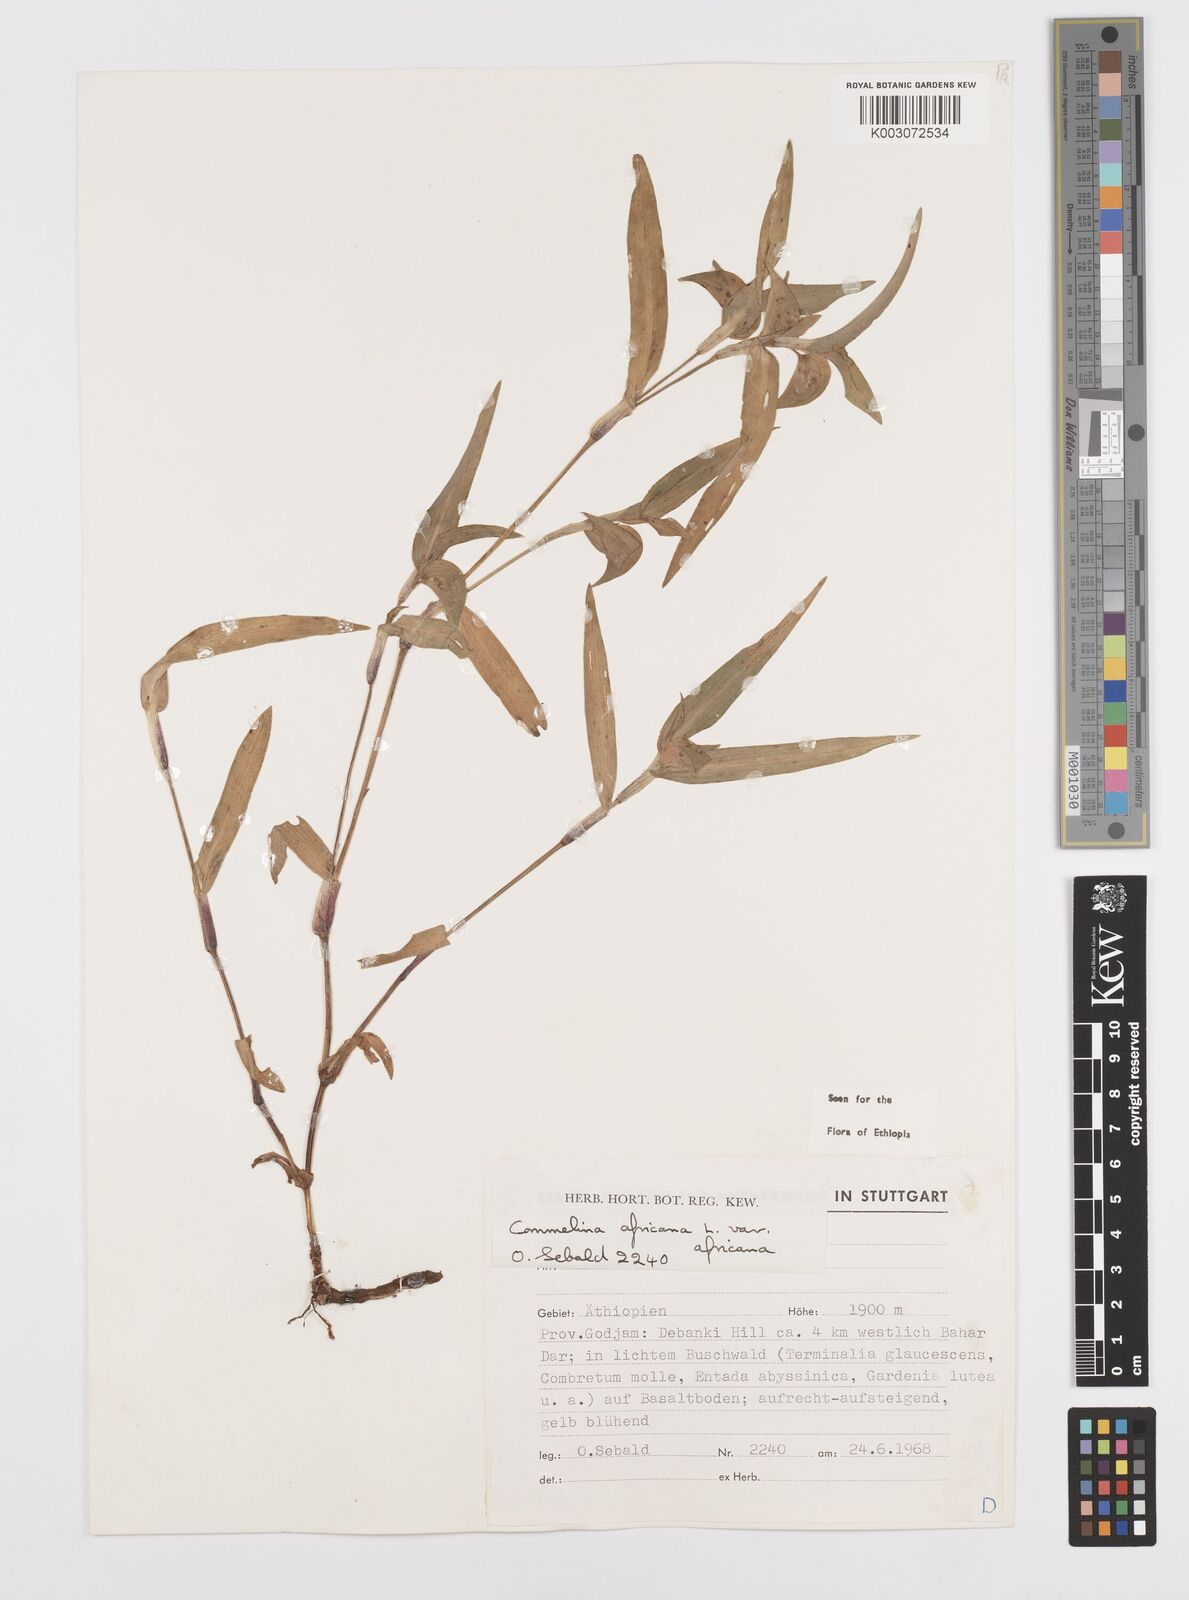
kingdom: Plantae
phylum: Tracheophyta
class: Liliopsida
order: Commelinales
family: Commelinaceae
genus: Commelina
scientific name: Commelina africana
